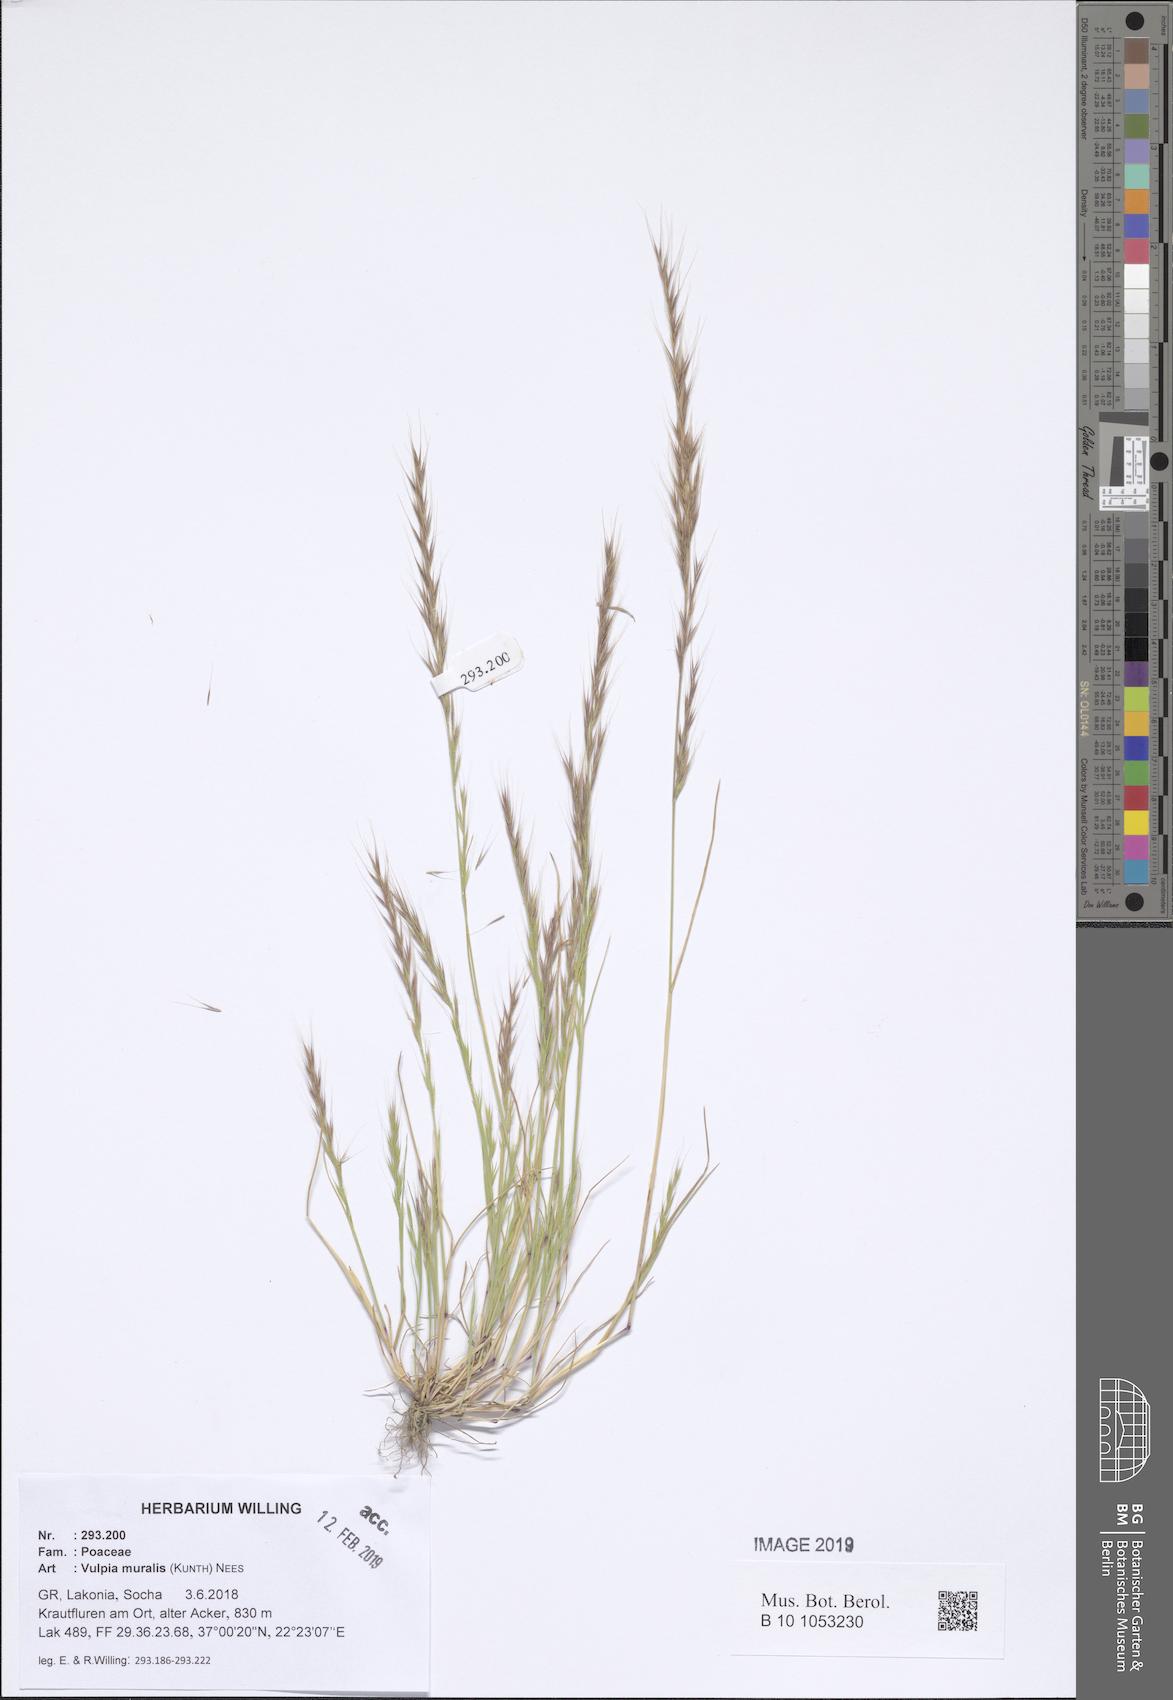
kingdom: Plantae
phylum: Tracheophyta
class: Liliopsida
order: Poales
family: Poaceae
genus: Festuca
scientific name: Festuca muralis
